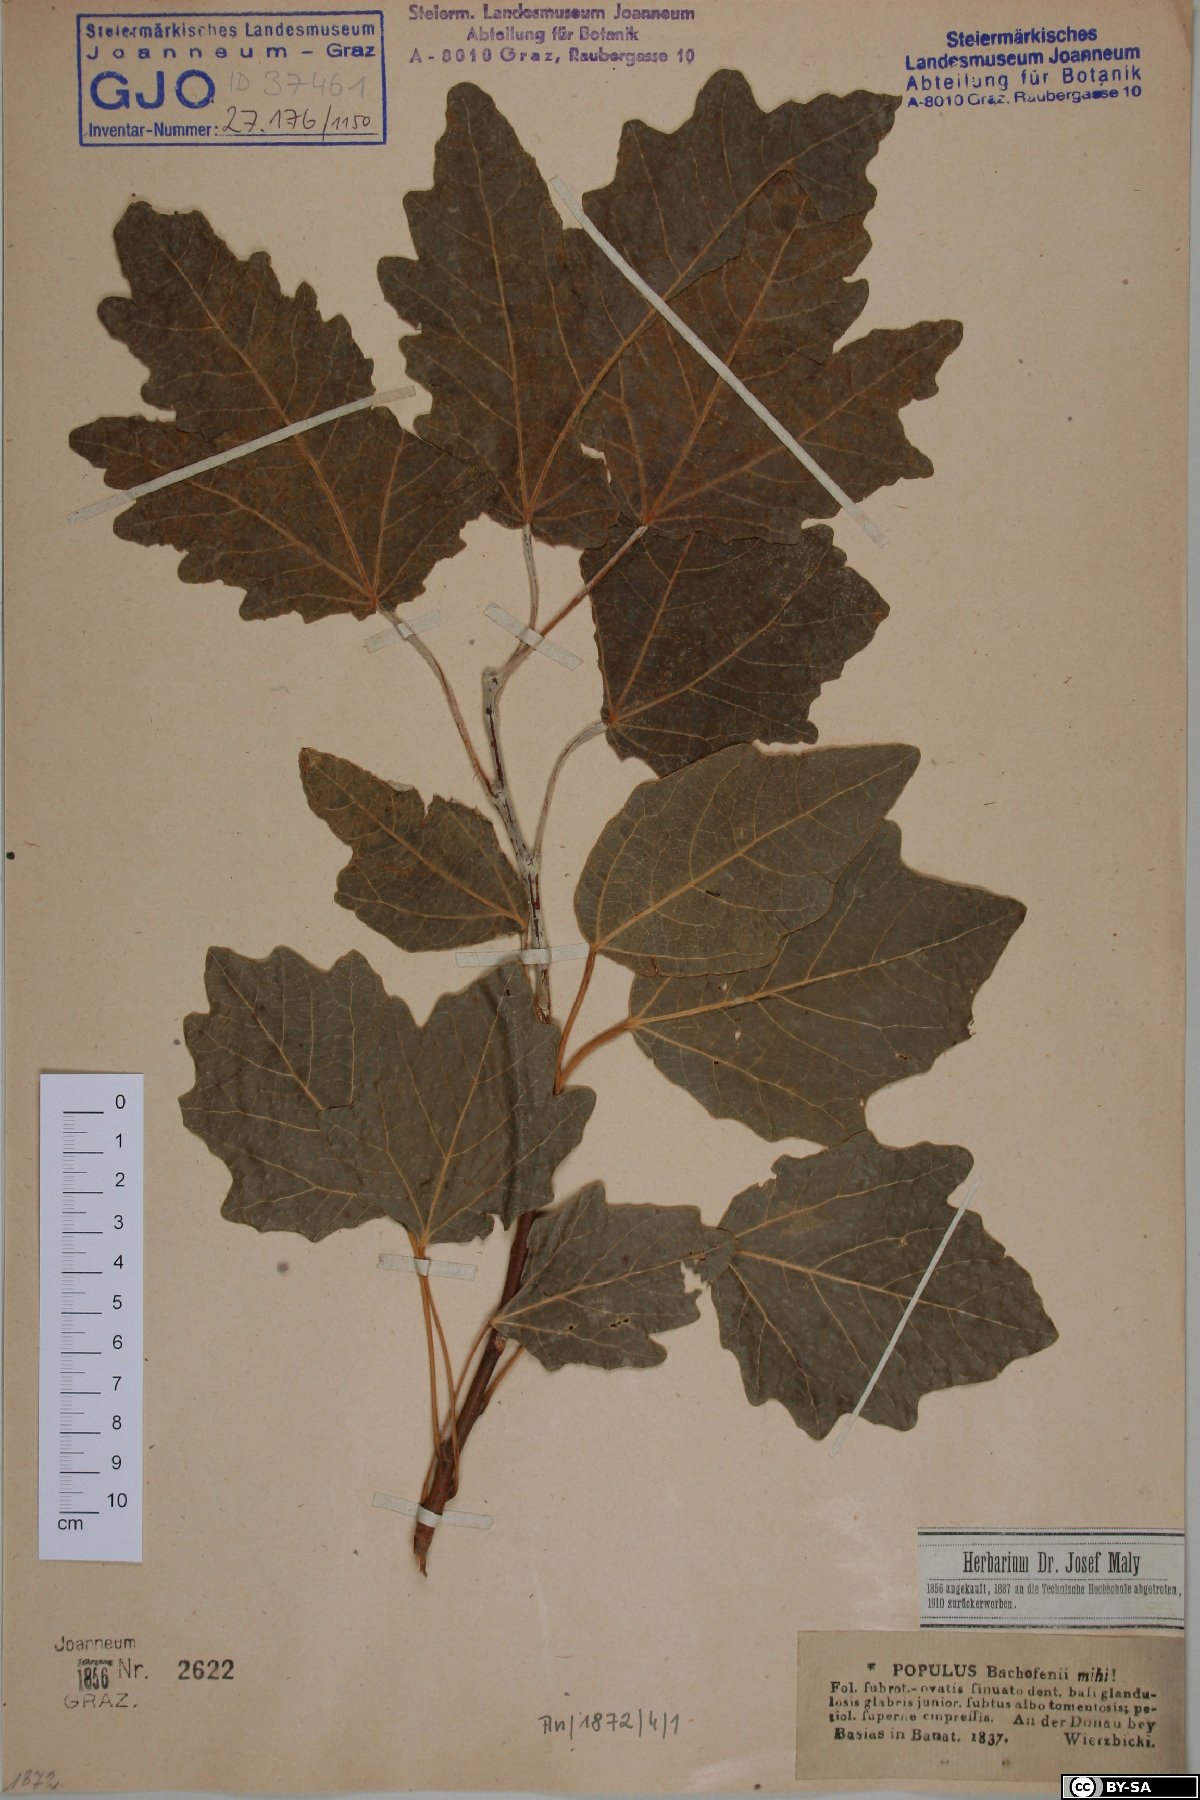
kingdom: Plantae
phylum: Tracheophyta
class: Magnoliopsida
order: Malpighiales
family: Salicaceae
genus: Populus
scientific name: Populus alba
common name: White poplar
